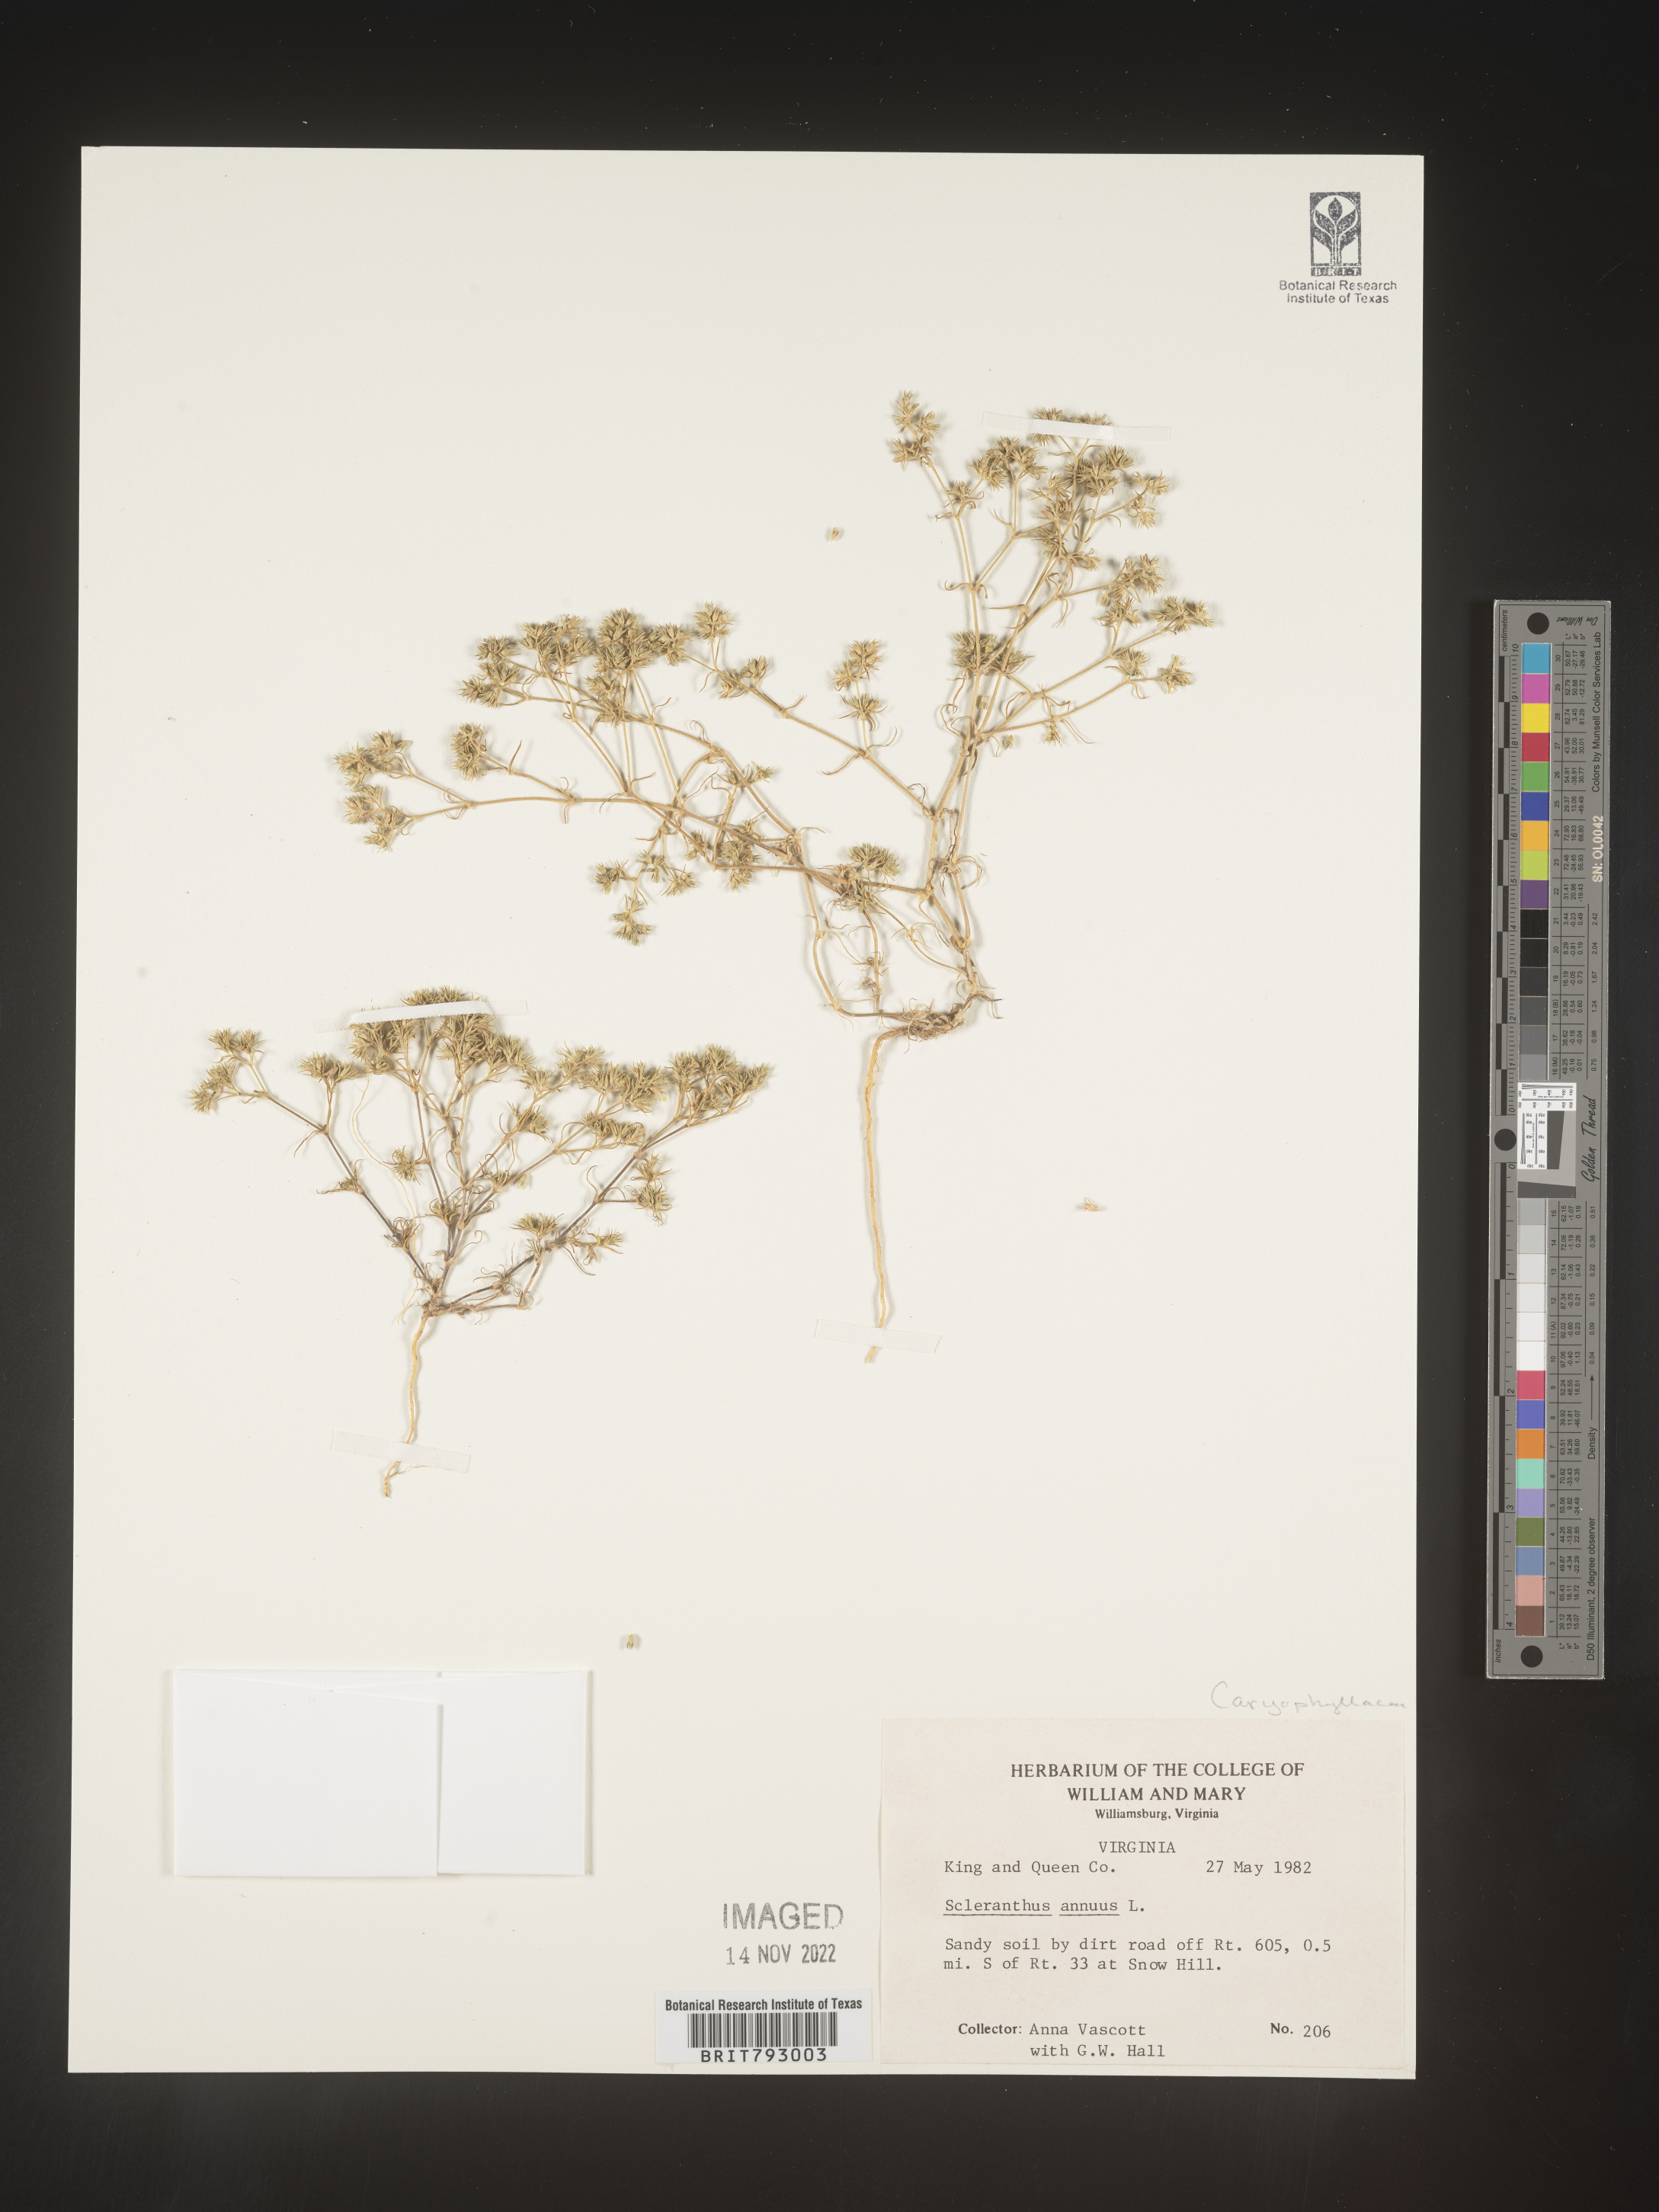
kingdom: Plantae
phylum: Tracheophyta
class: Magnoliopsida
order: Caryophyllales
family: Caryophyllaceae
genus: Scleranthus
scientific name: Scleranthus
